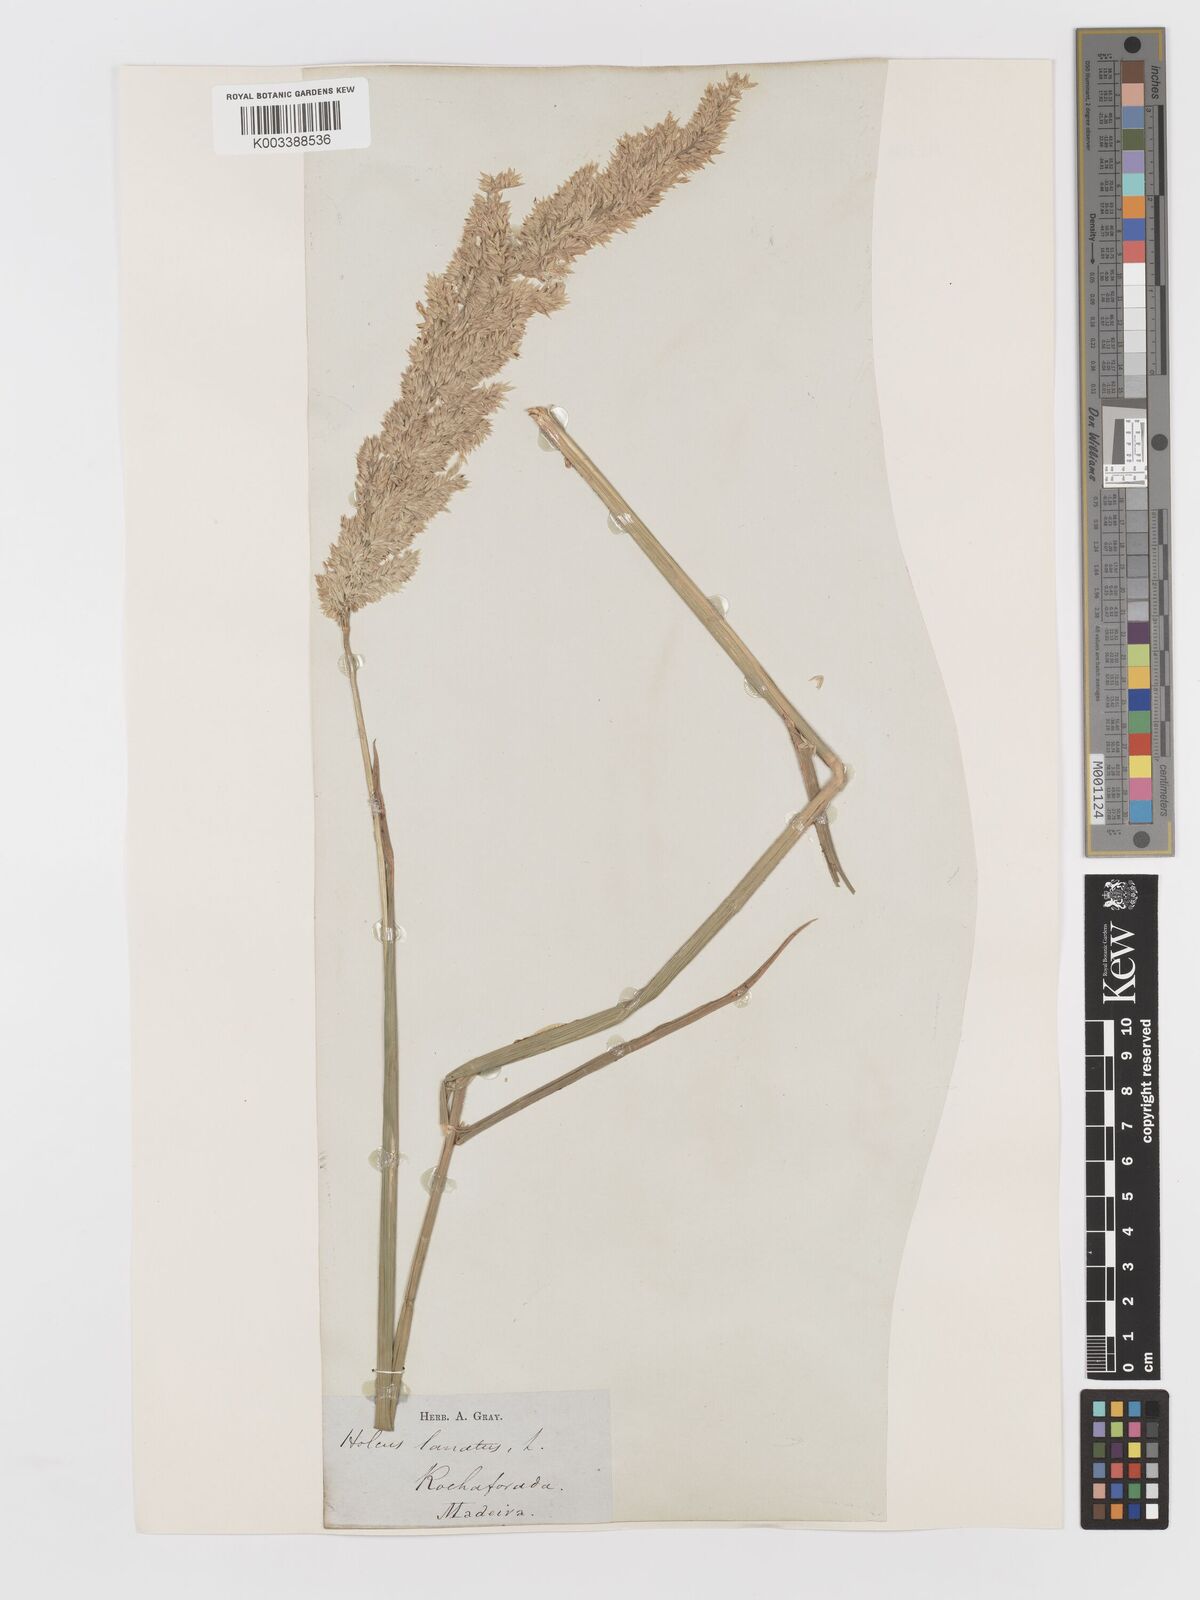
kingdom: Plantae
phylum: Tracheophyta
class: Liliopsida
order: Poales
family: Poaceae
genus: Holcus
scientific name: Holcus lanatus
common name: Yorkshire-fog
